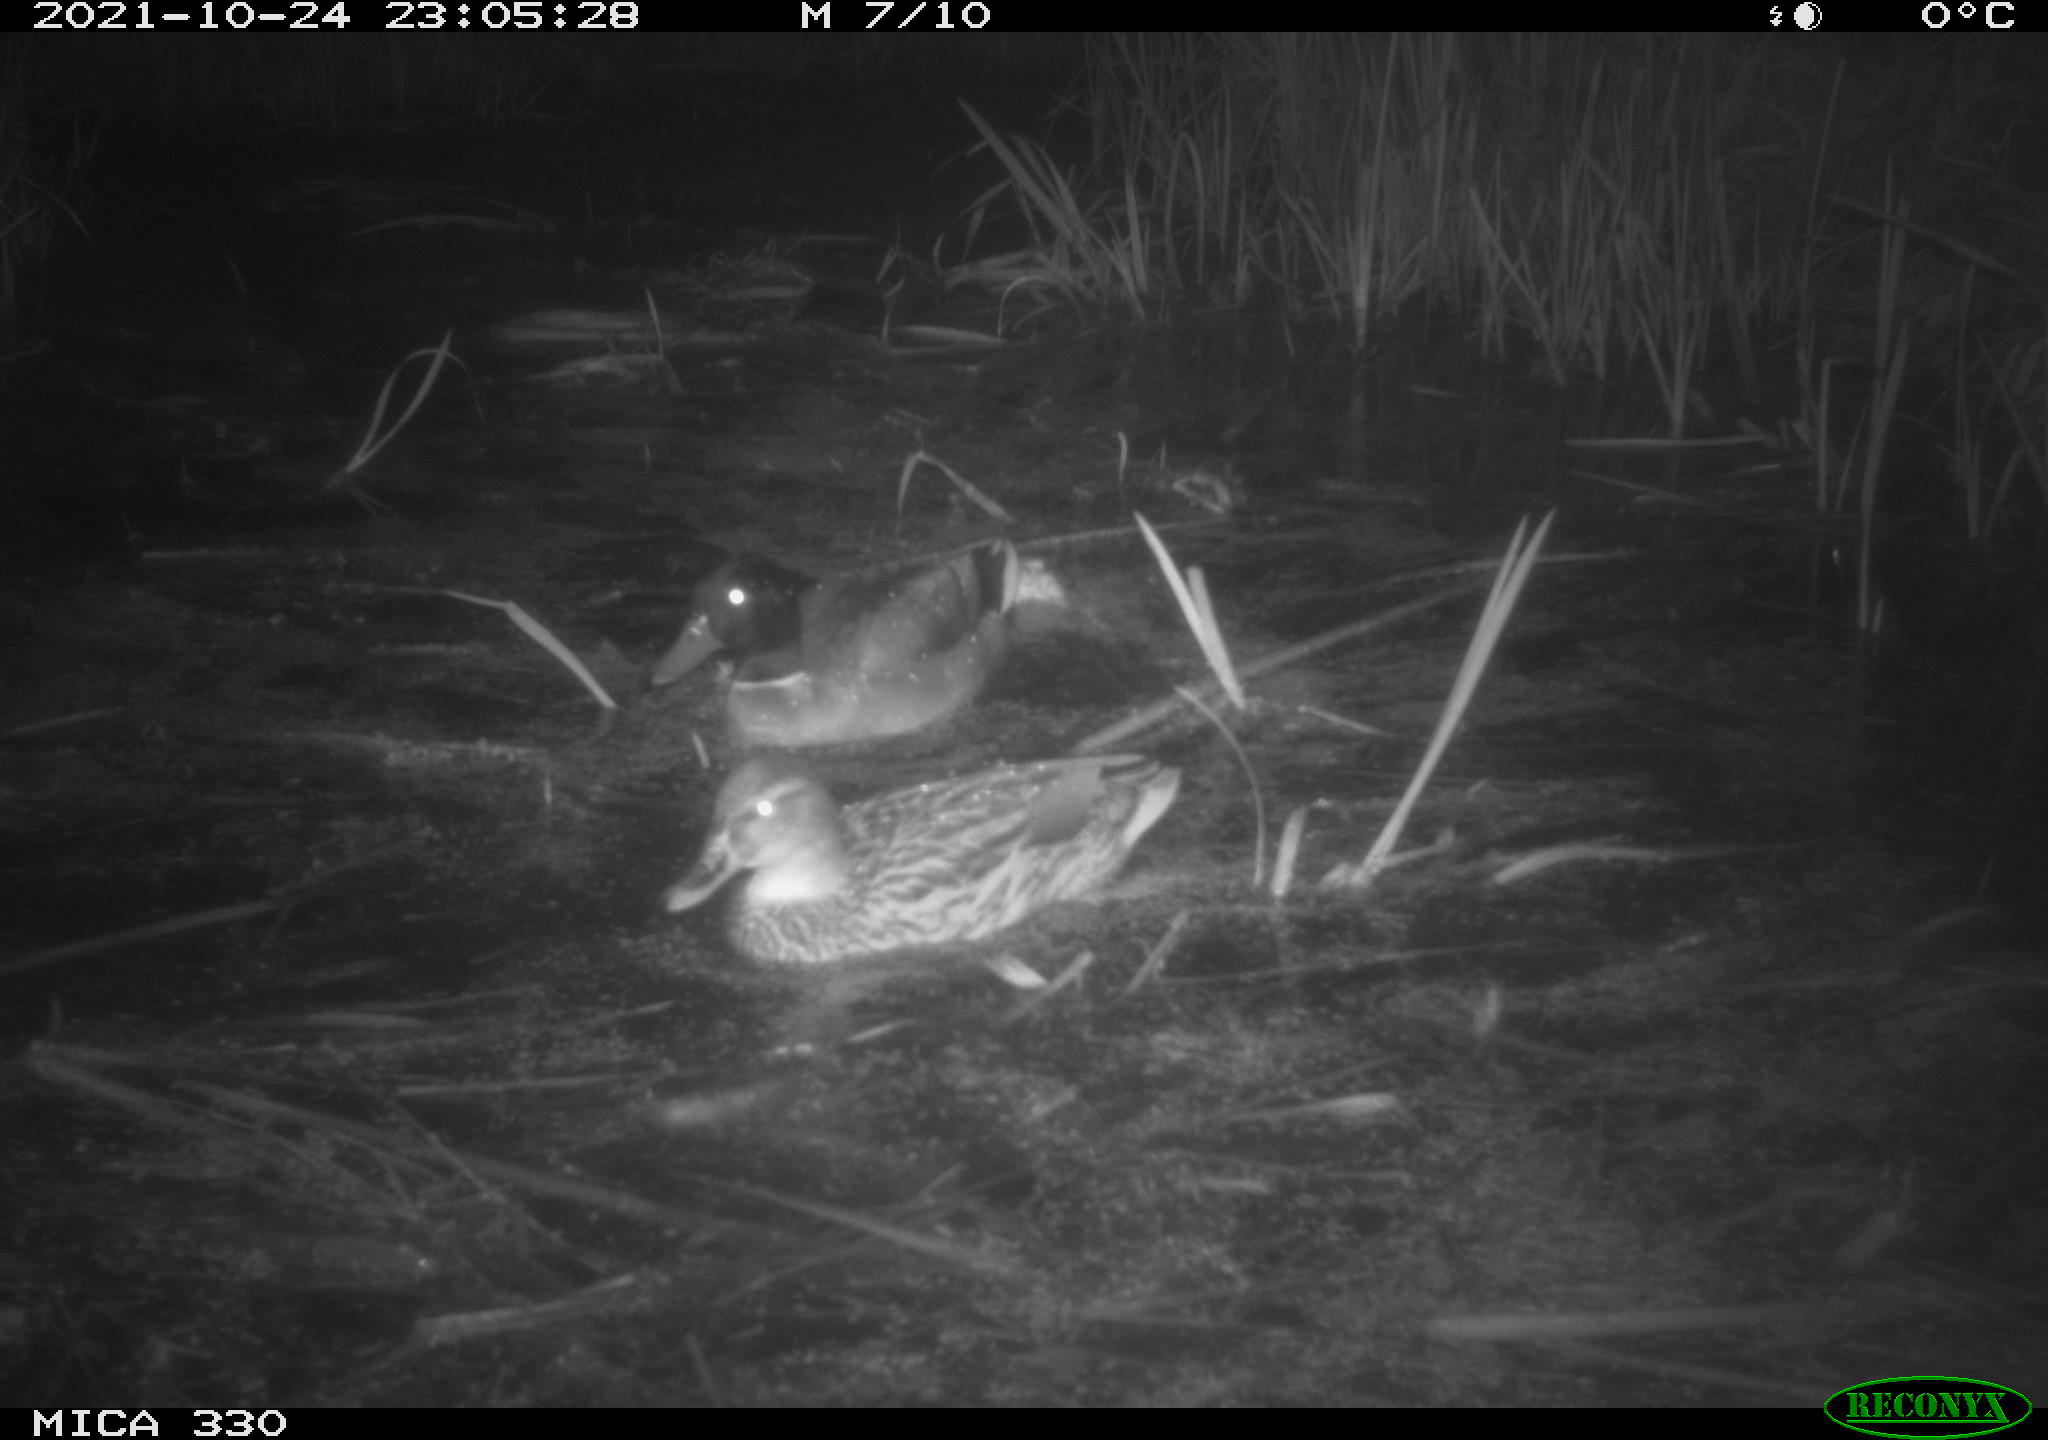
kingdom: Animalia
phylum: Chordata
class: Aves
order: Anseriformes
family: Anatidae
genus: Anas
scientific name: Anas platyrhynchos
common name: Mallard
